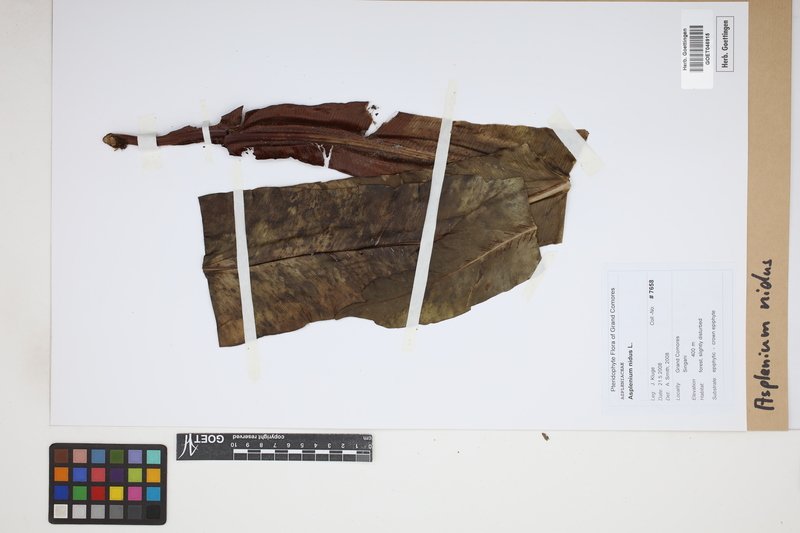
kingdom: Plantae
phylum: Tracheophyta
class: Polypodiopsida
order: Polypodiales
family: Aspleniaceae
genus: Asplenium
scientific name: Asplenium nidus
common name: Bird's-nest fern
